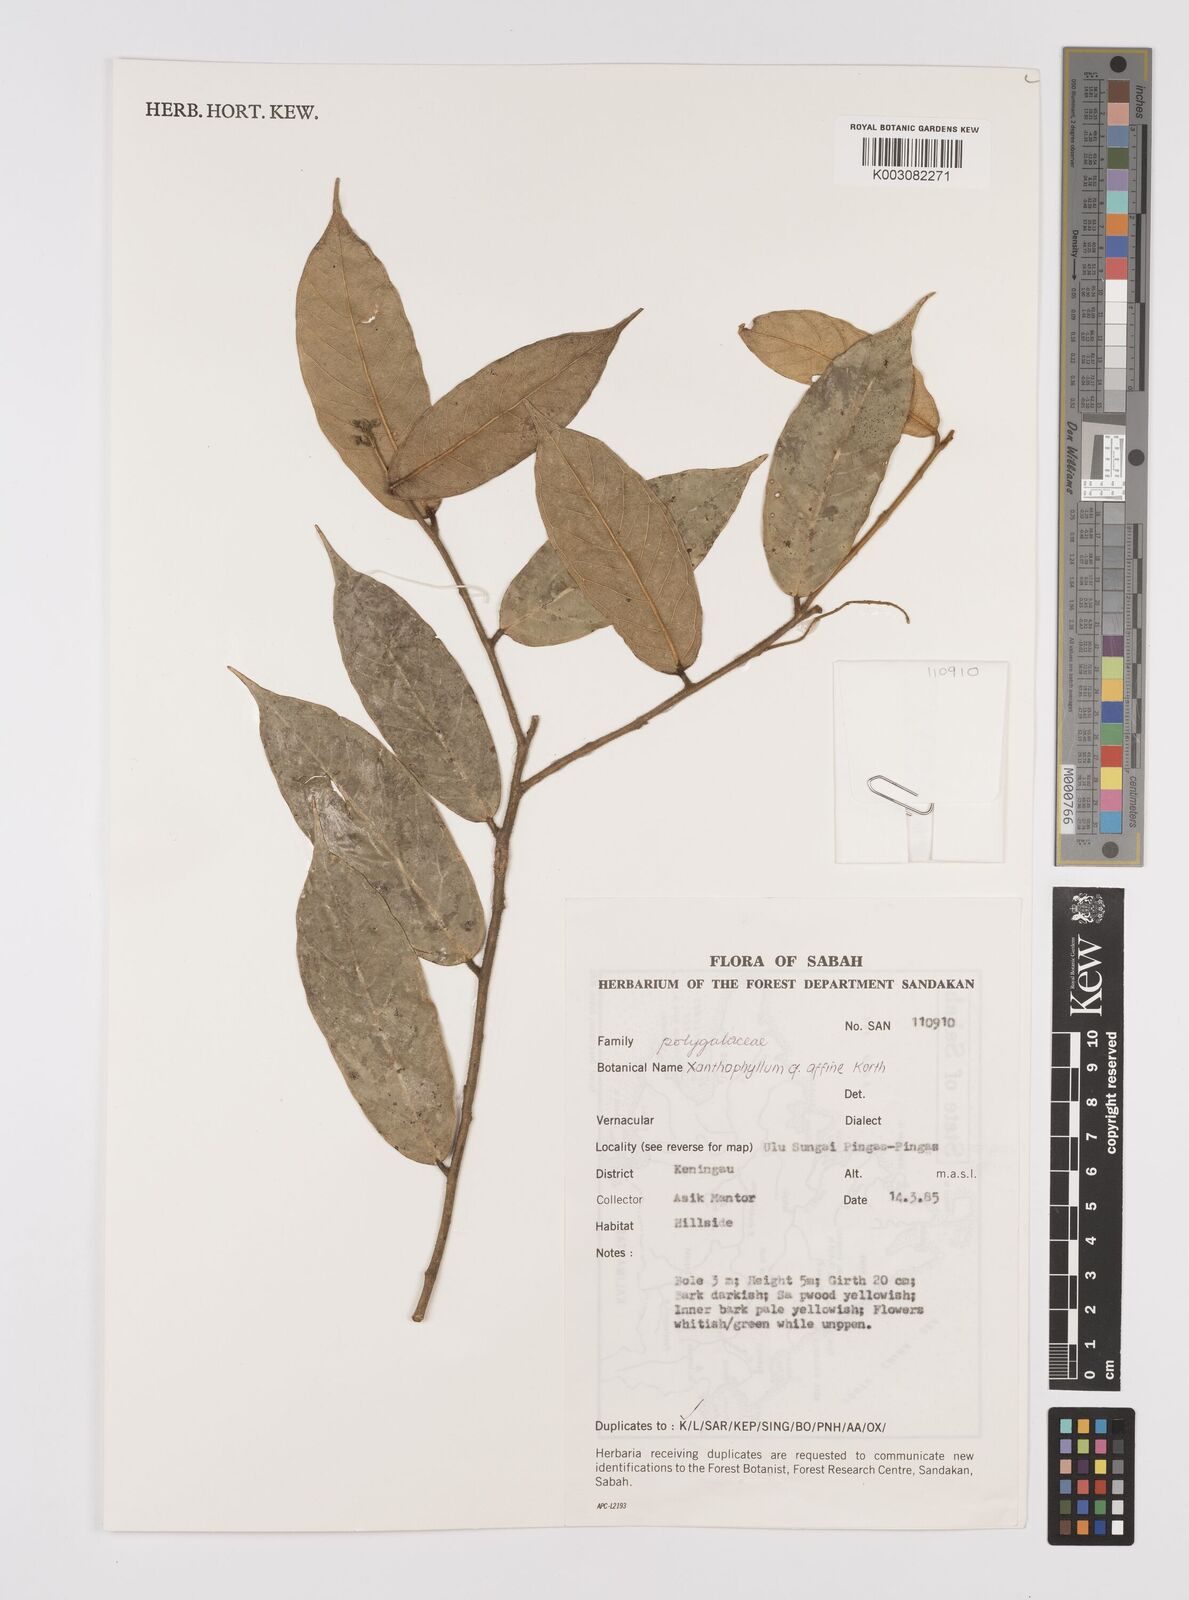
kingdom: Plantae
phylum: Tracheophyta
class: Magnoliopsida
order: Fabales
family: Polygalaceae
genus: Xanthophyllum
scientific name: Xanthophyllum flavescens
